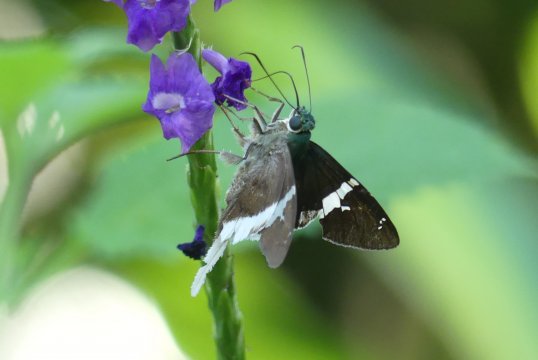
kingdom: Animalia
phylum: Arthropoda
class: Insecta
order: Lepidoptera
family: Hesperiidae
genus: Urbanus
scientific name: Urbanus chalco
